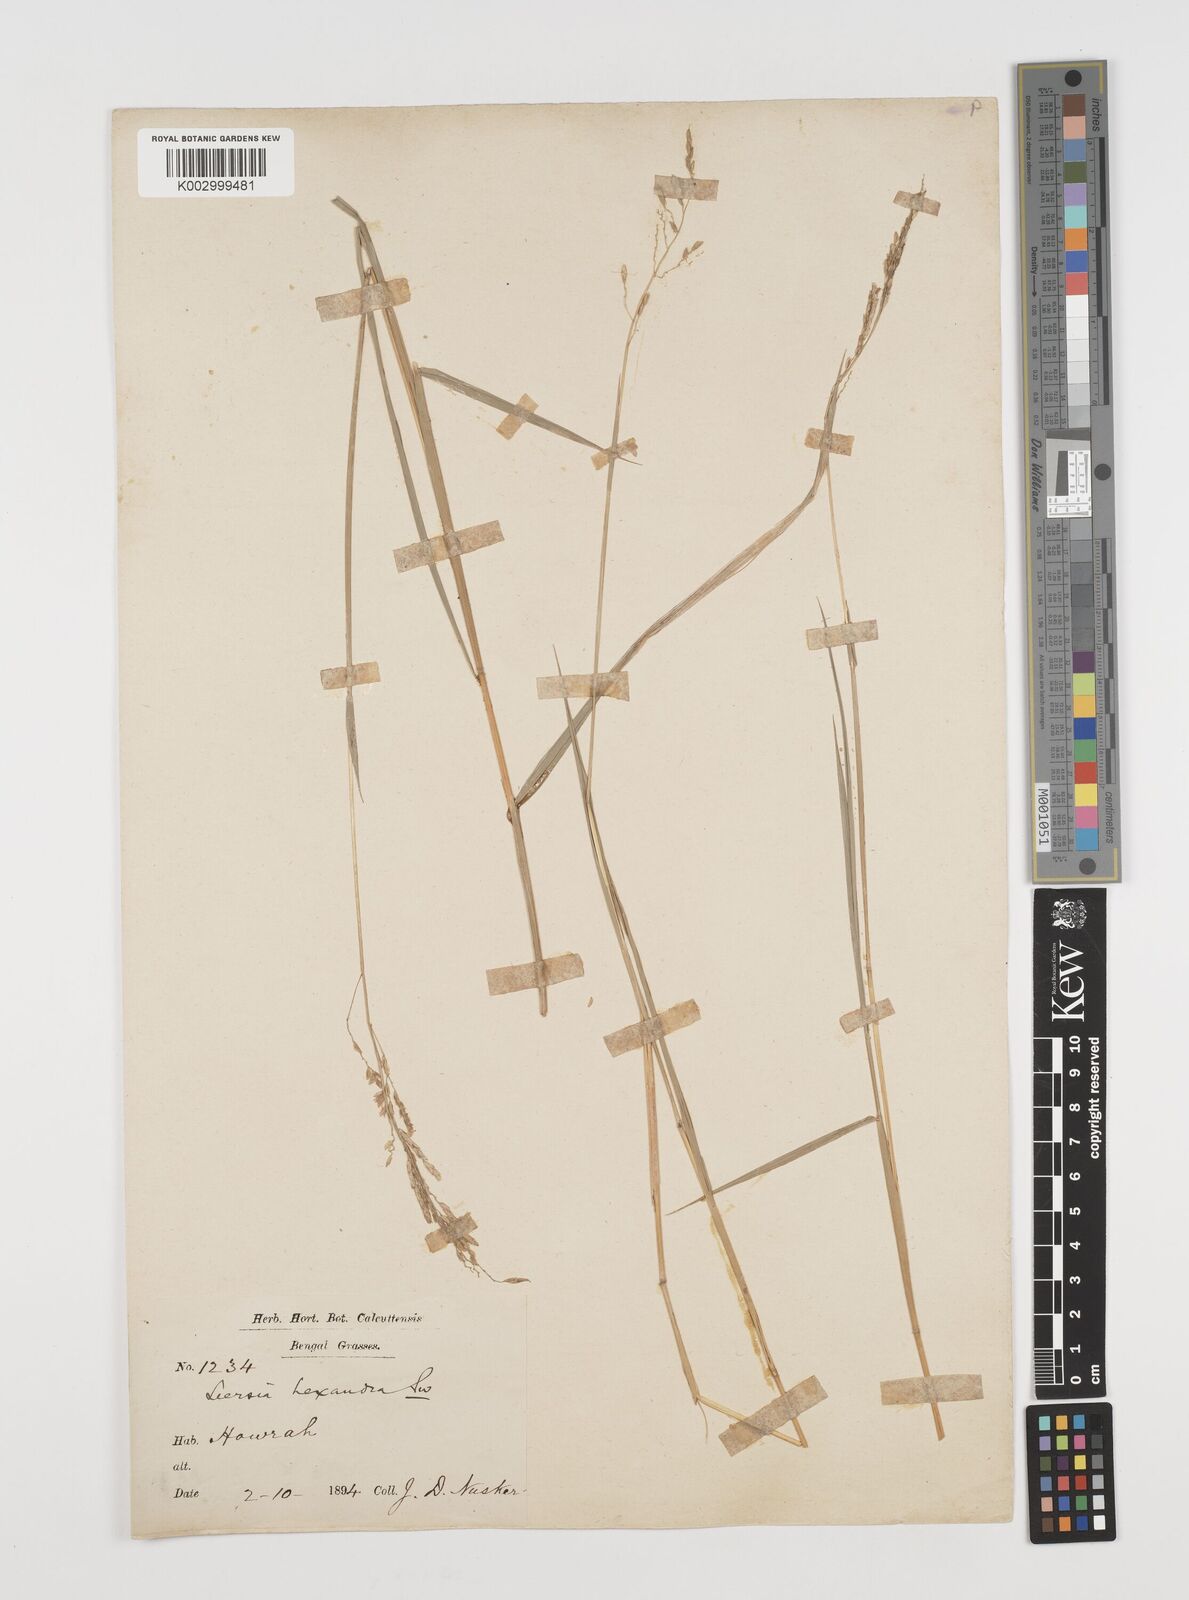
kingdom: Plantae
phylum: Tracheophyta
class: Liliopsida
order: Poales
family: Poaceae
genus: Leersia
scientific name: Leersia hexandra
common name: Southern cut grass
